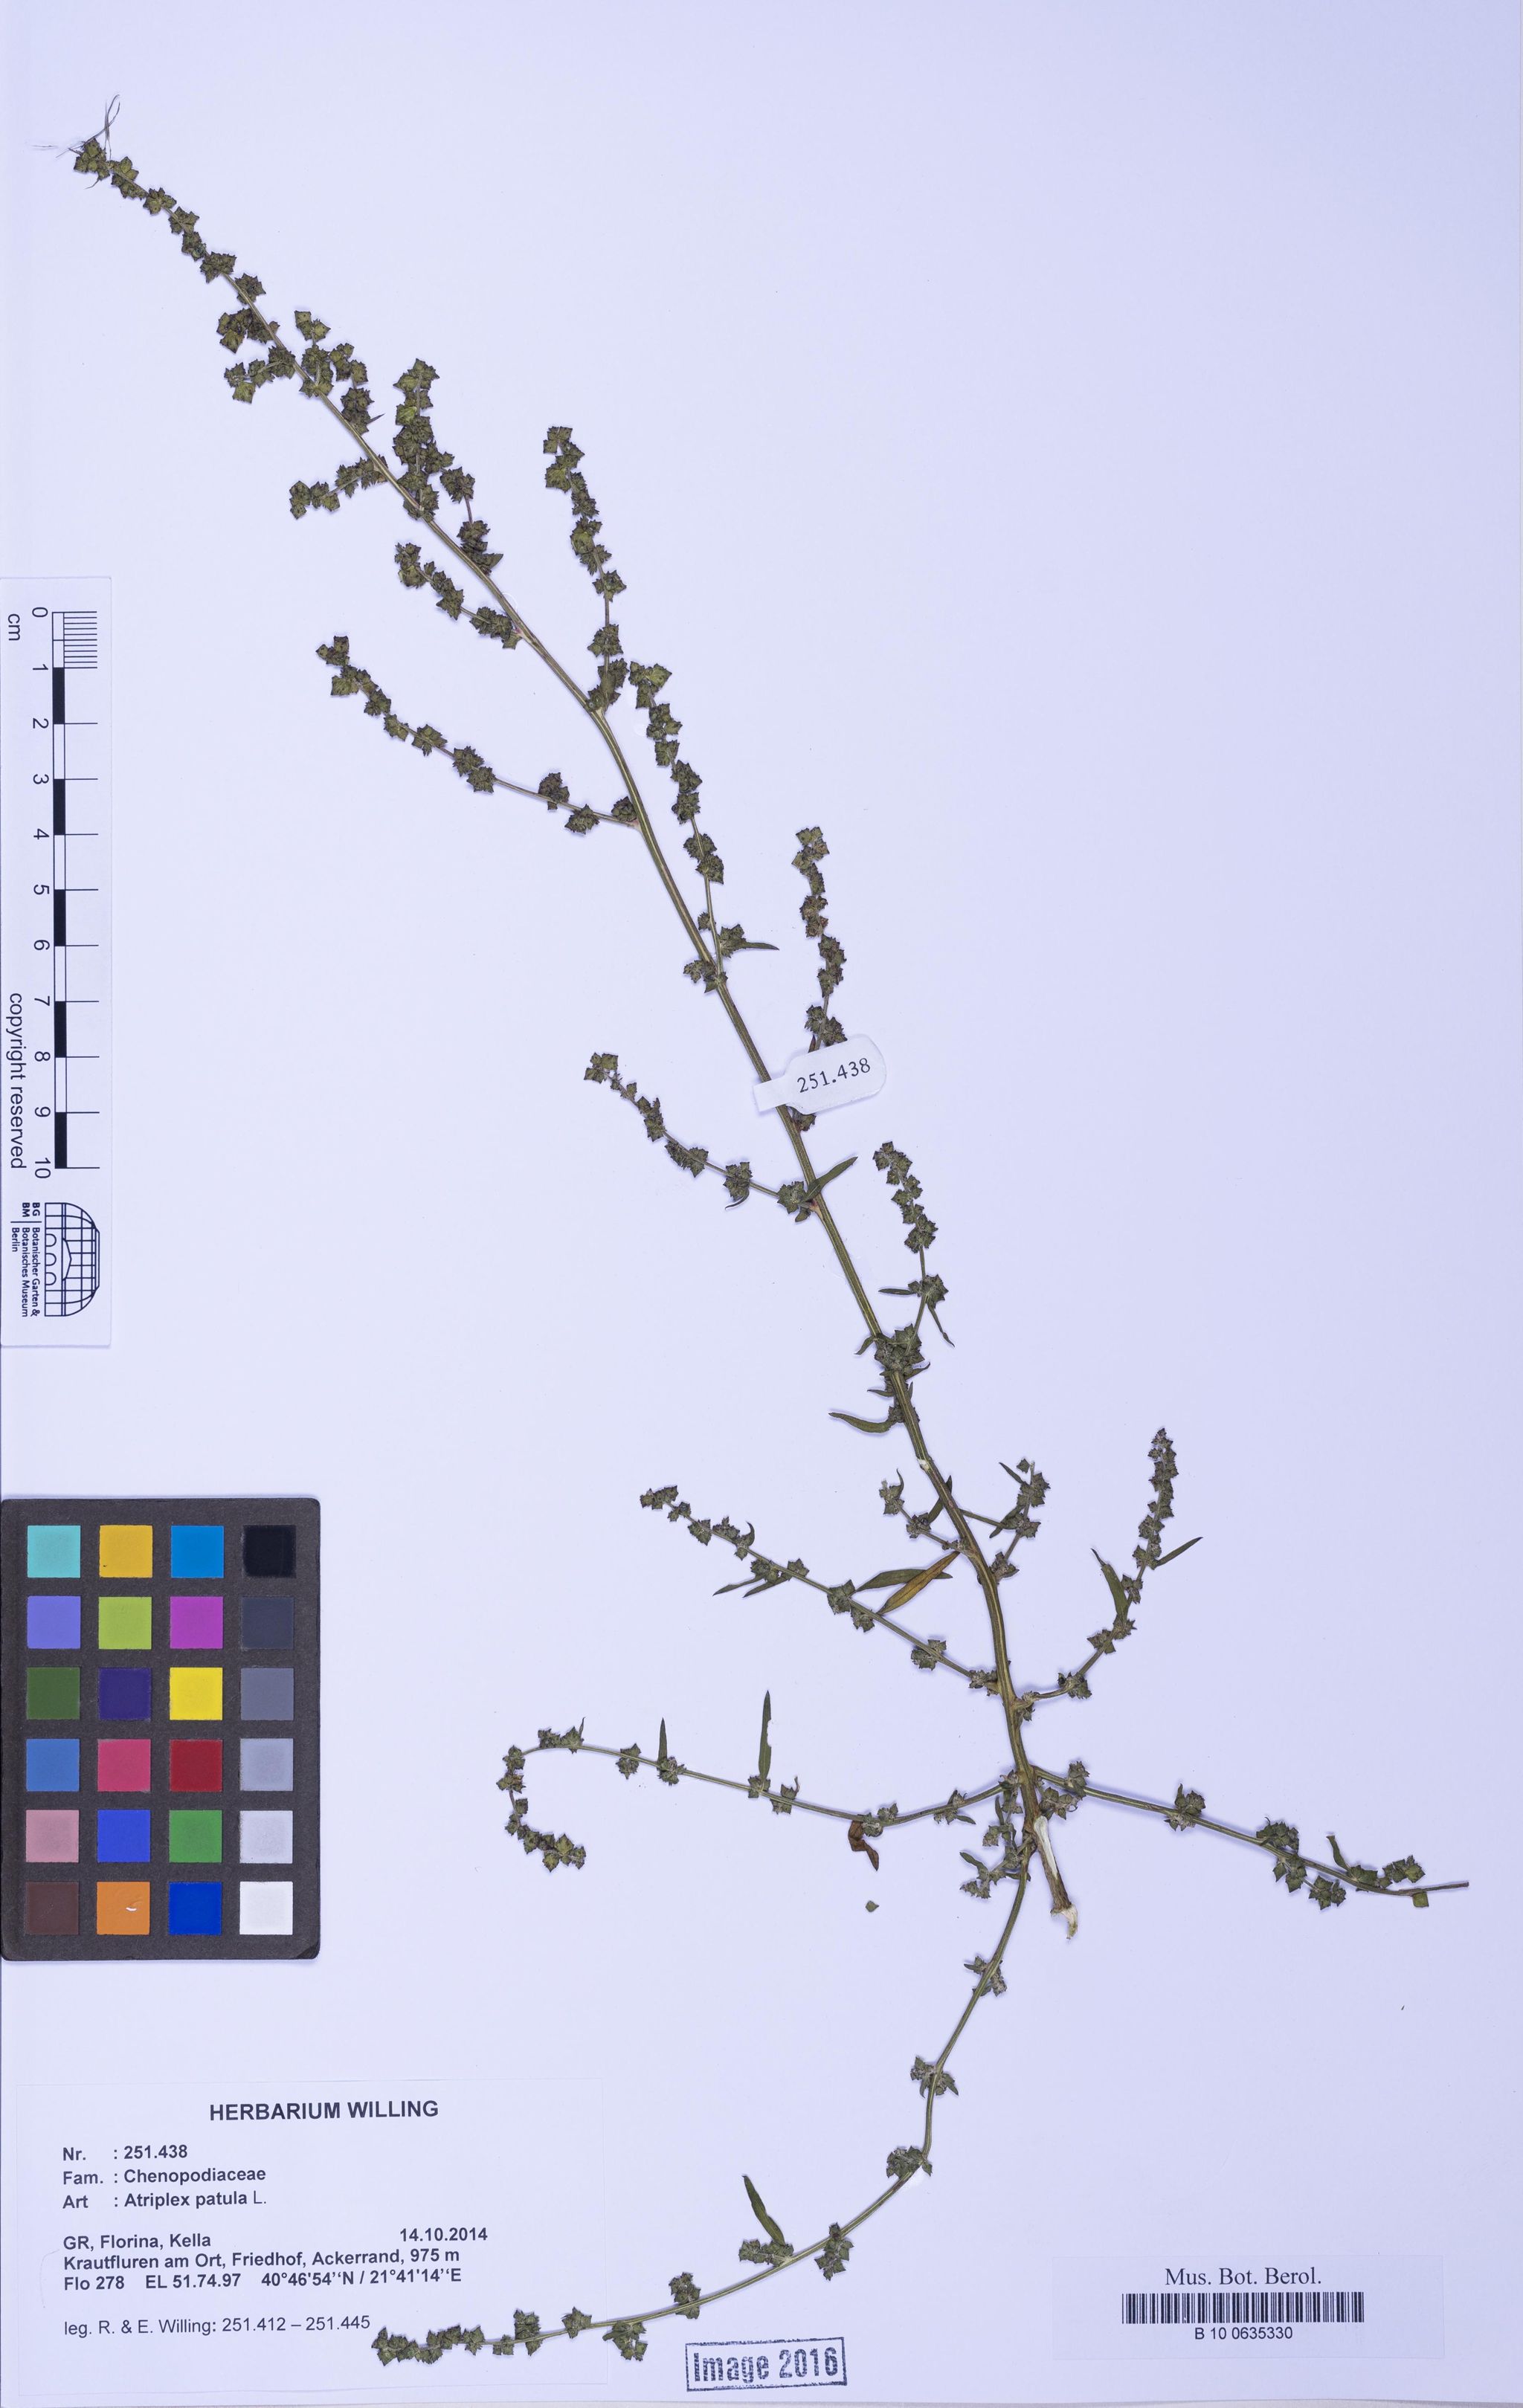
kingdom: Plantae
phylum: Tracheophyta
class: Magnoliopsida
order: Caryophyllales
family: Amaranthaceae
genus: Atriplex
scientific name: Atriplex patula
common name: Common orache
